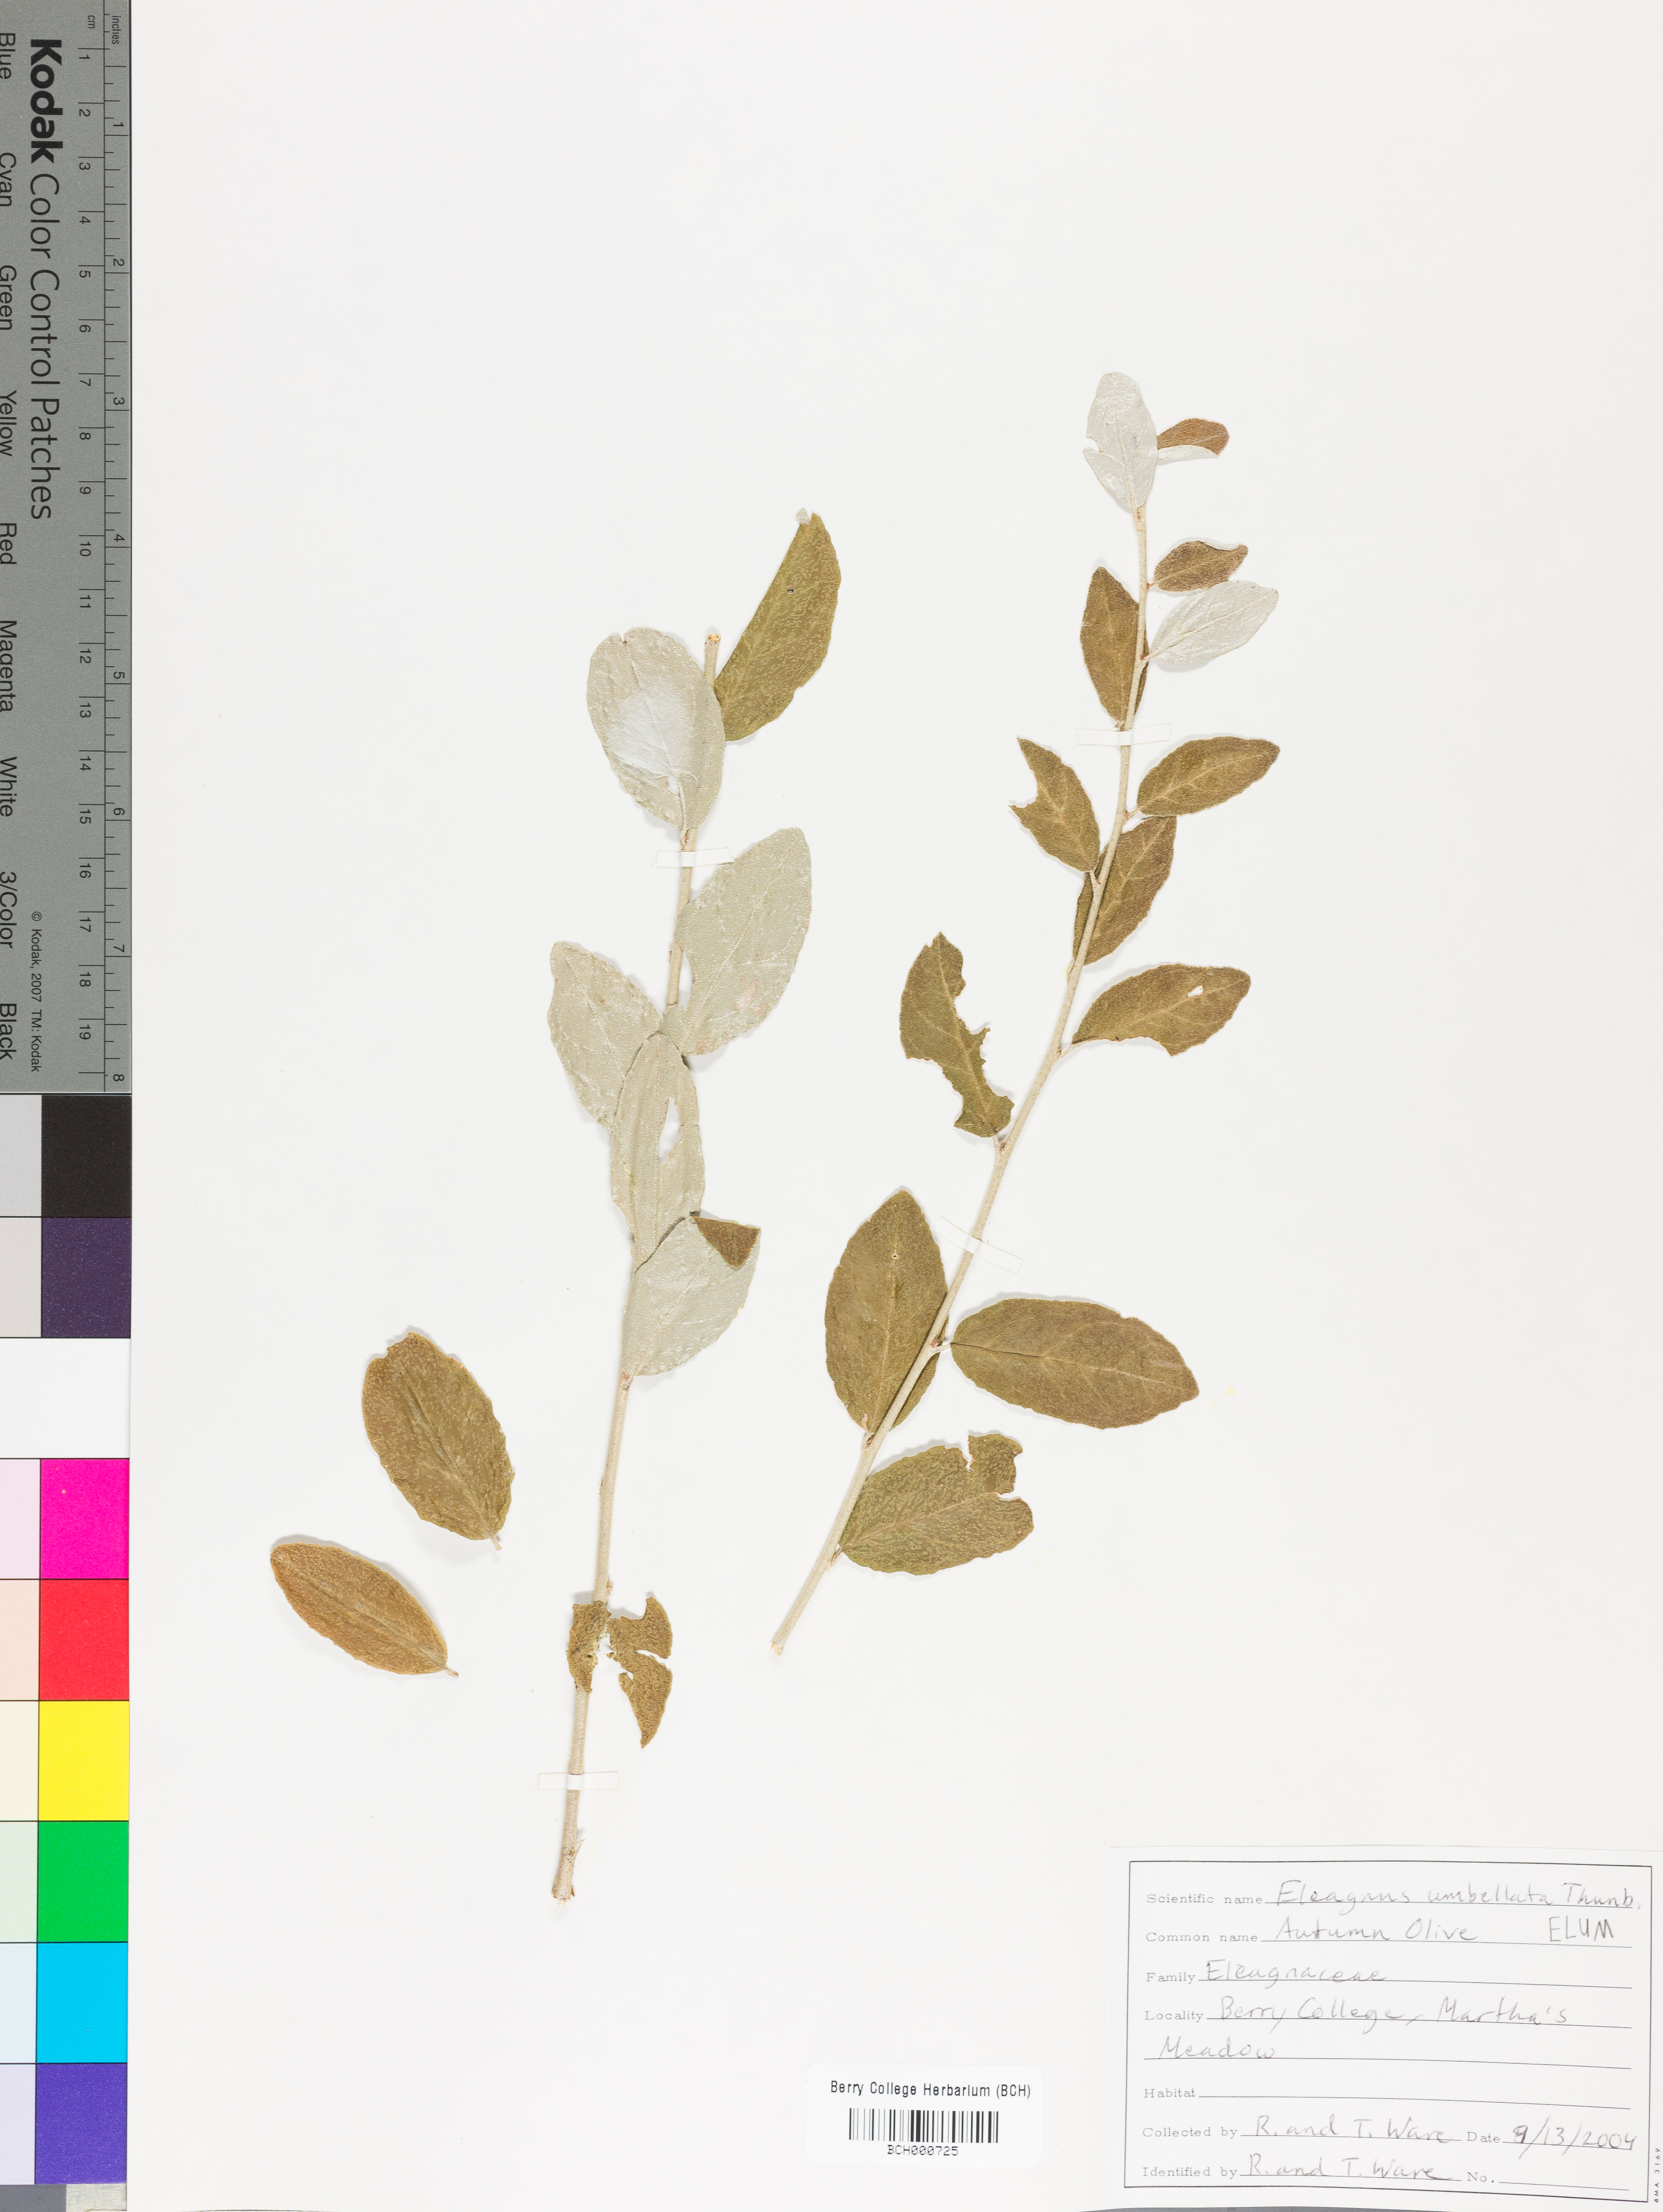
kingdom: Plantae
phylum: Tracheophyta
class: Magnoliopsida
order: Rosales
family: Elaeagnaceae
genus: Elaeagnus
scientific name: Elaeagnus umbellata
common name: Autumn olive
